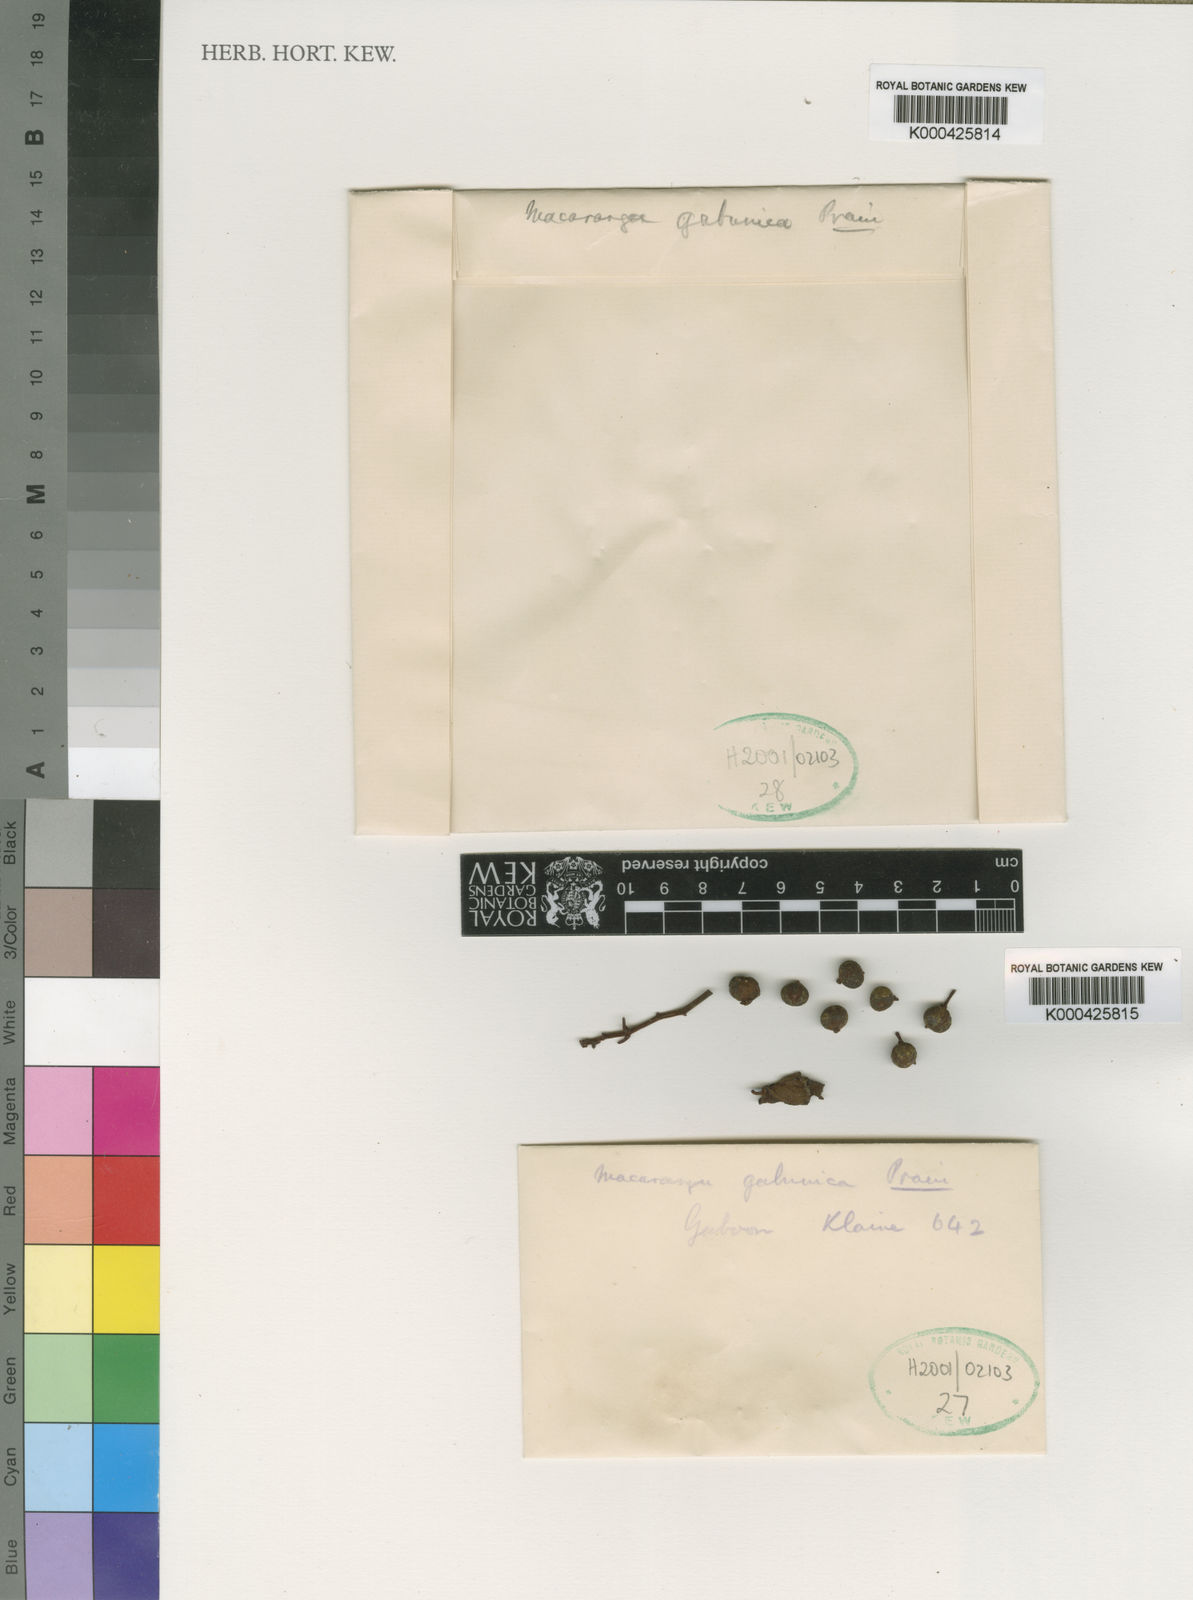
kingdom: Plantae
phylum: Tracheophyta
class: Magnoliopsida
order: Malpighiales
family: Euphorbiaceae
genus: Macaranga
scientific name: Macaranga gabunica
